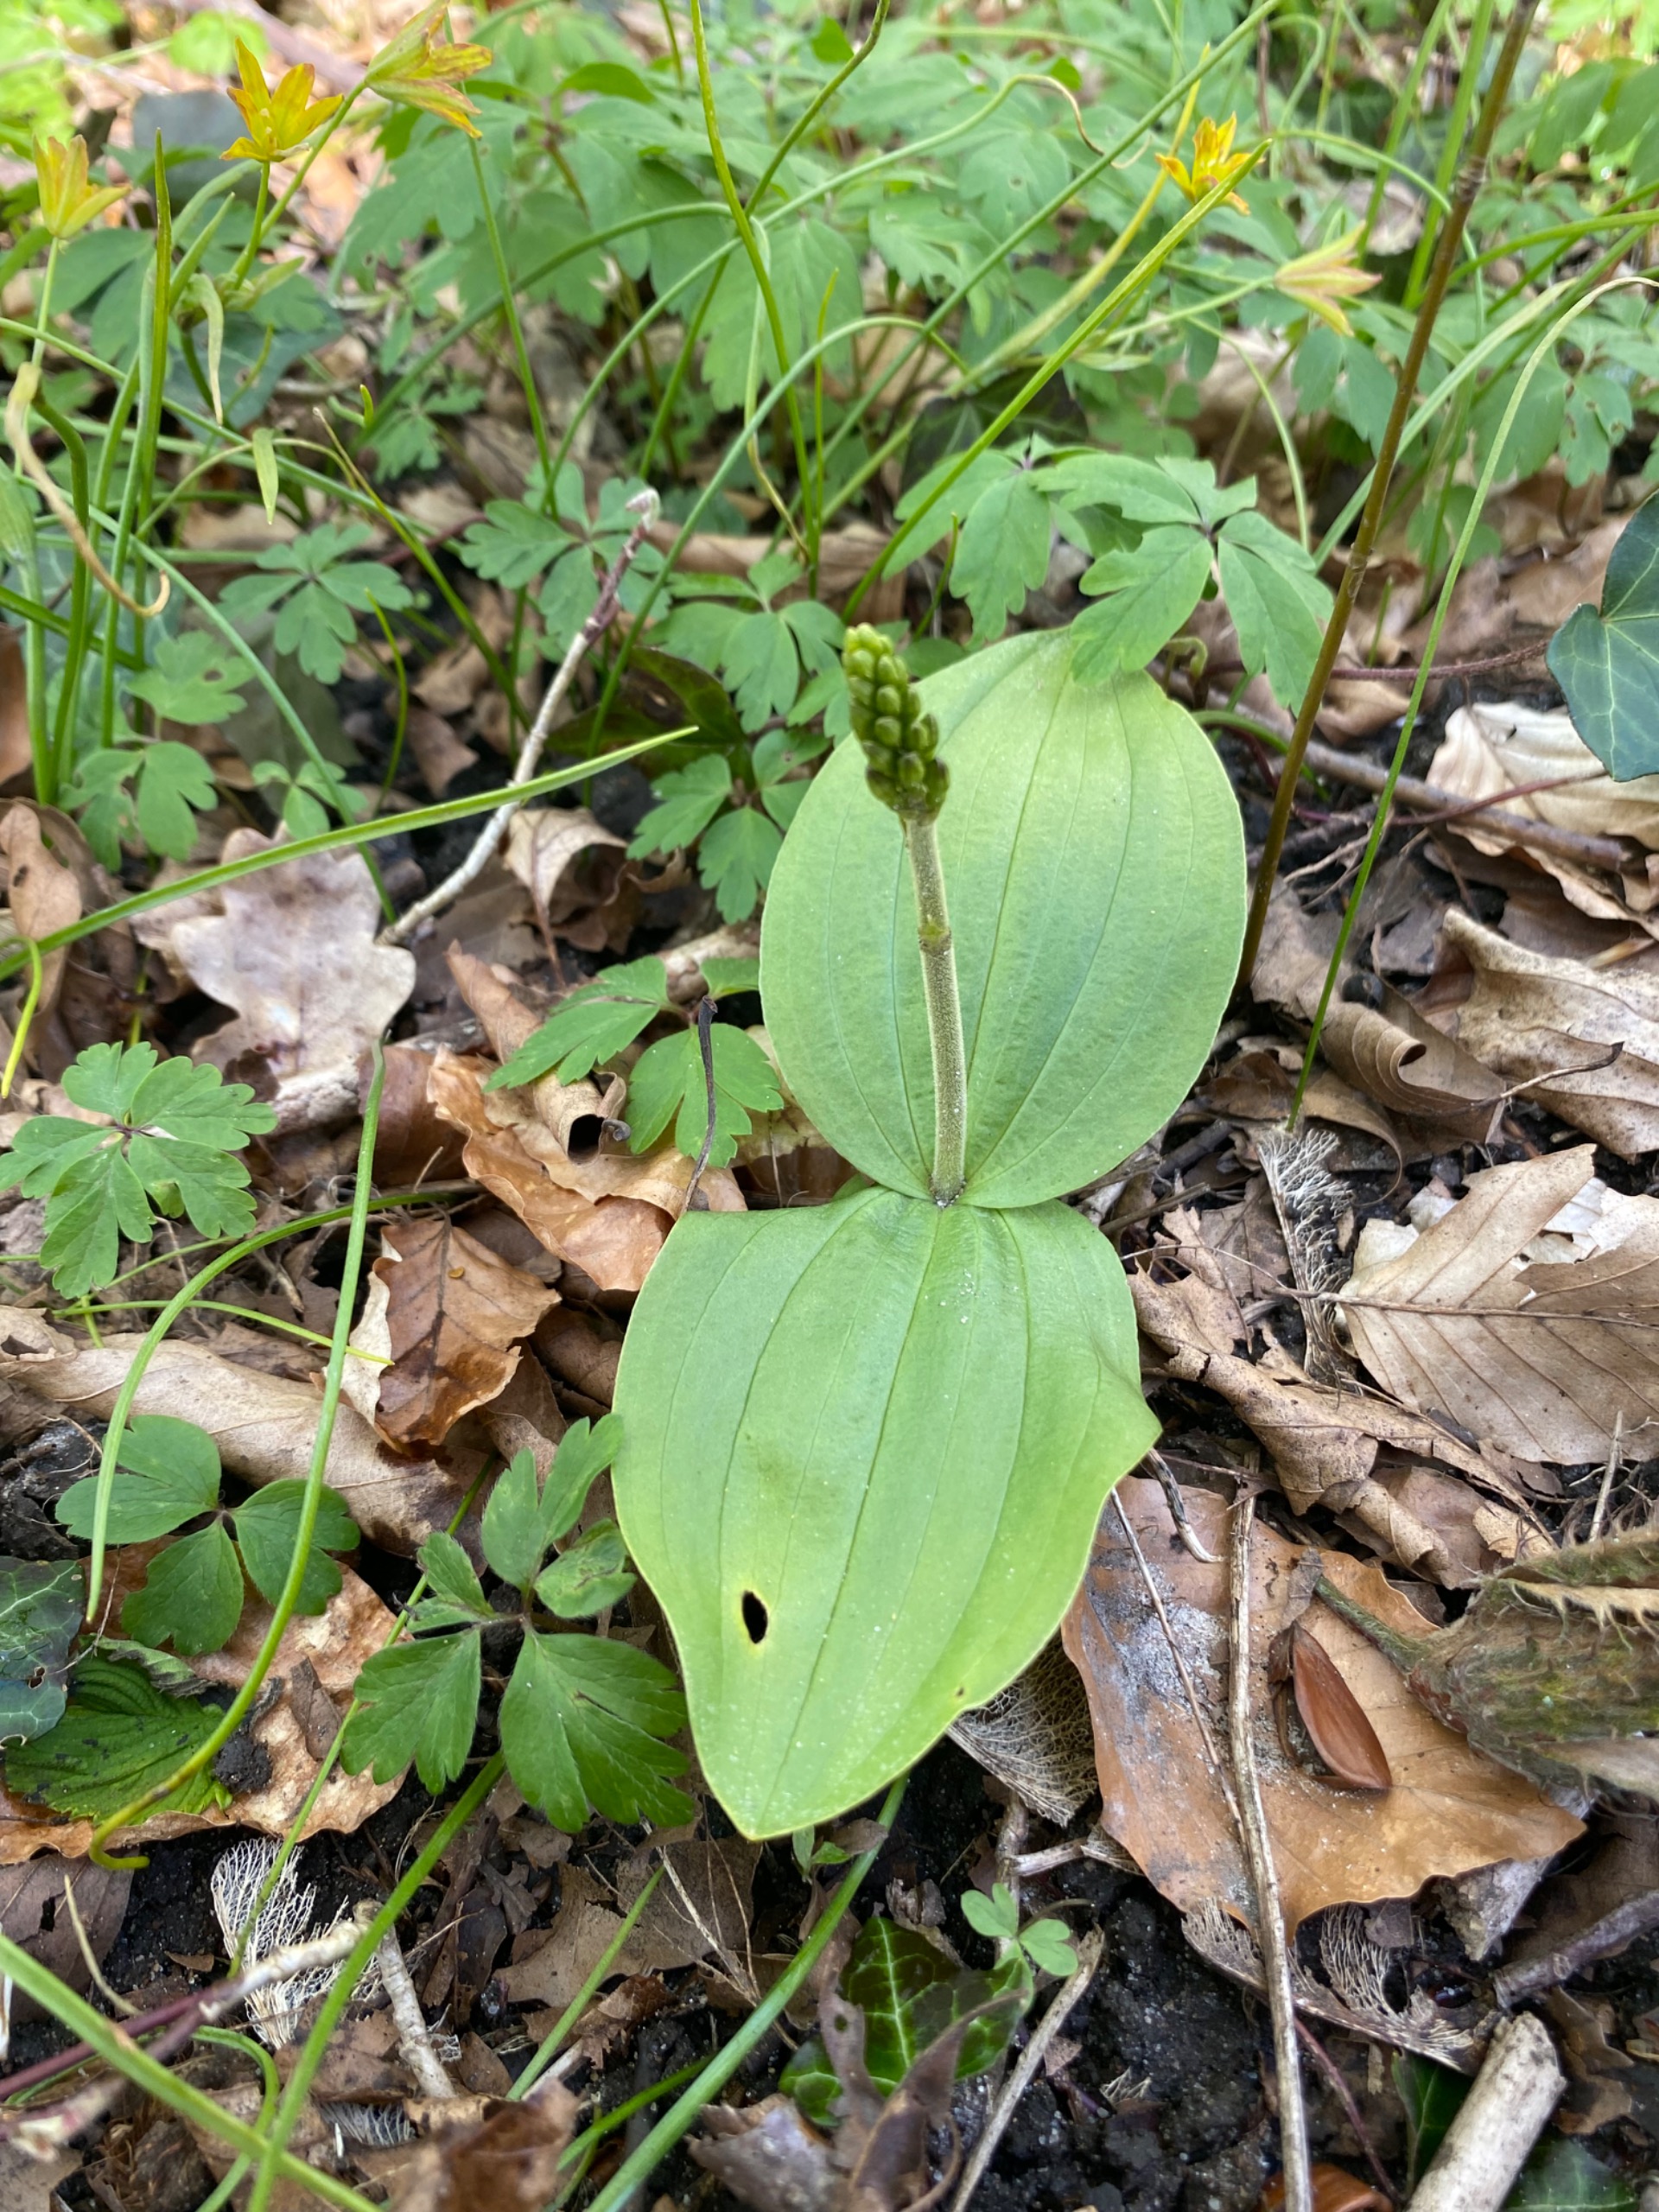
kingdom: Plantae
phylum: Tracheophyta
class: Liliopsida
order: Asparagales
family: Orchidaceae
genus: Neottia
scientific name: Neottia ovata
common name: Ægbladet fliglæbe
